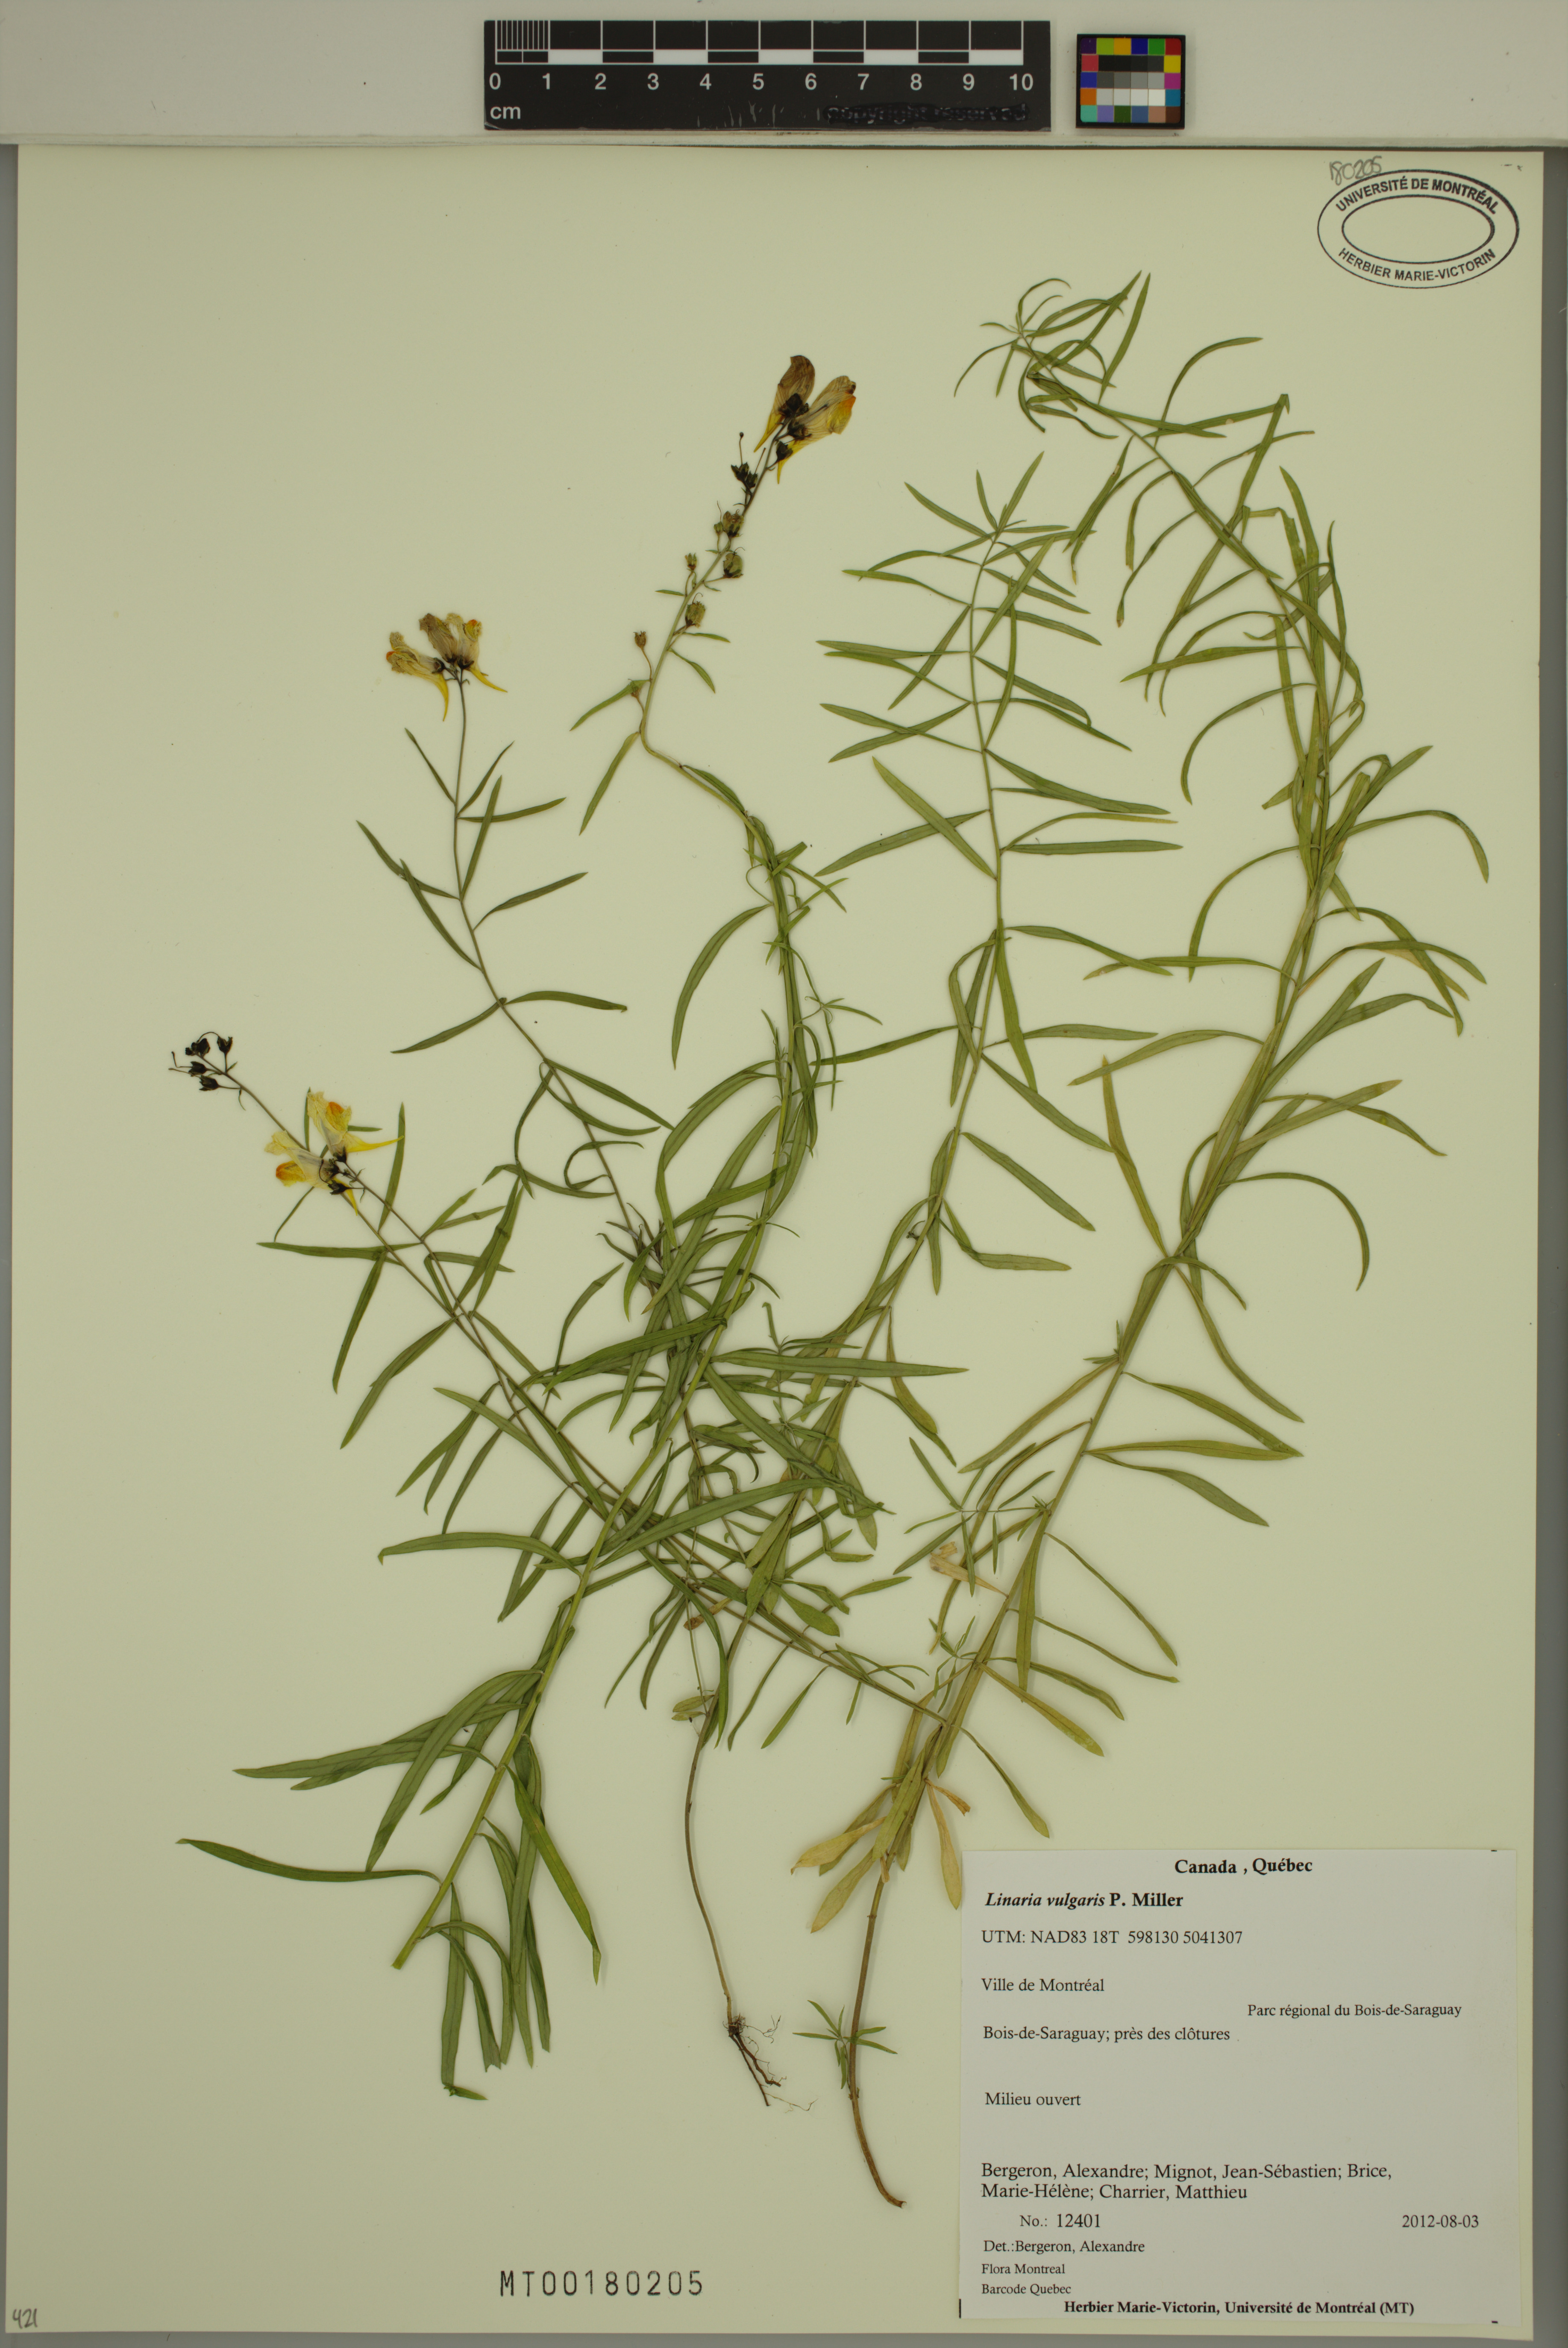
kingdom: Plantae
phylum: Tracheophyta
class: Magnoliopsida
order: Lamiales
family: Plantaginaceae
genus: Linaria
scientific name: Linaria vulgaris
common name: Butter and eggs
